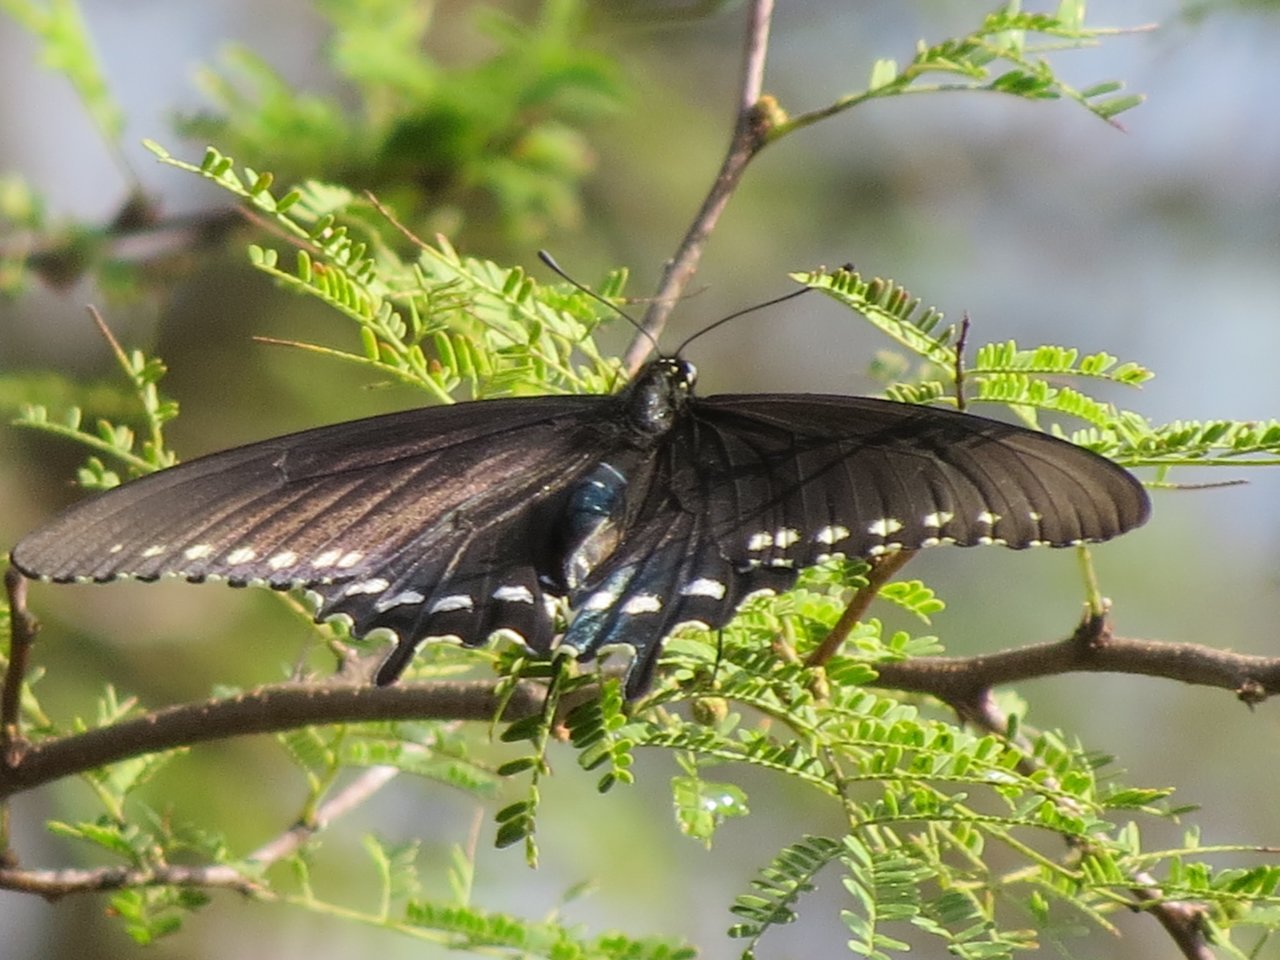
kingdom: Animalia
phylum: Arthropoda
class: Insecta
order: Lepidoptera
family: Papilionidae
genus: Battus
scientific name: Battus philenor
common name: Pipevine Swallowtail
